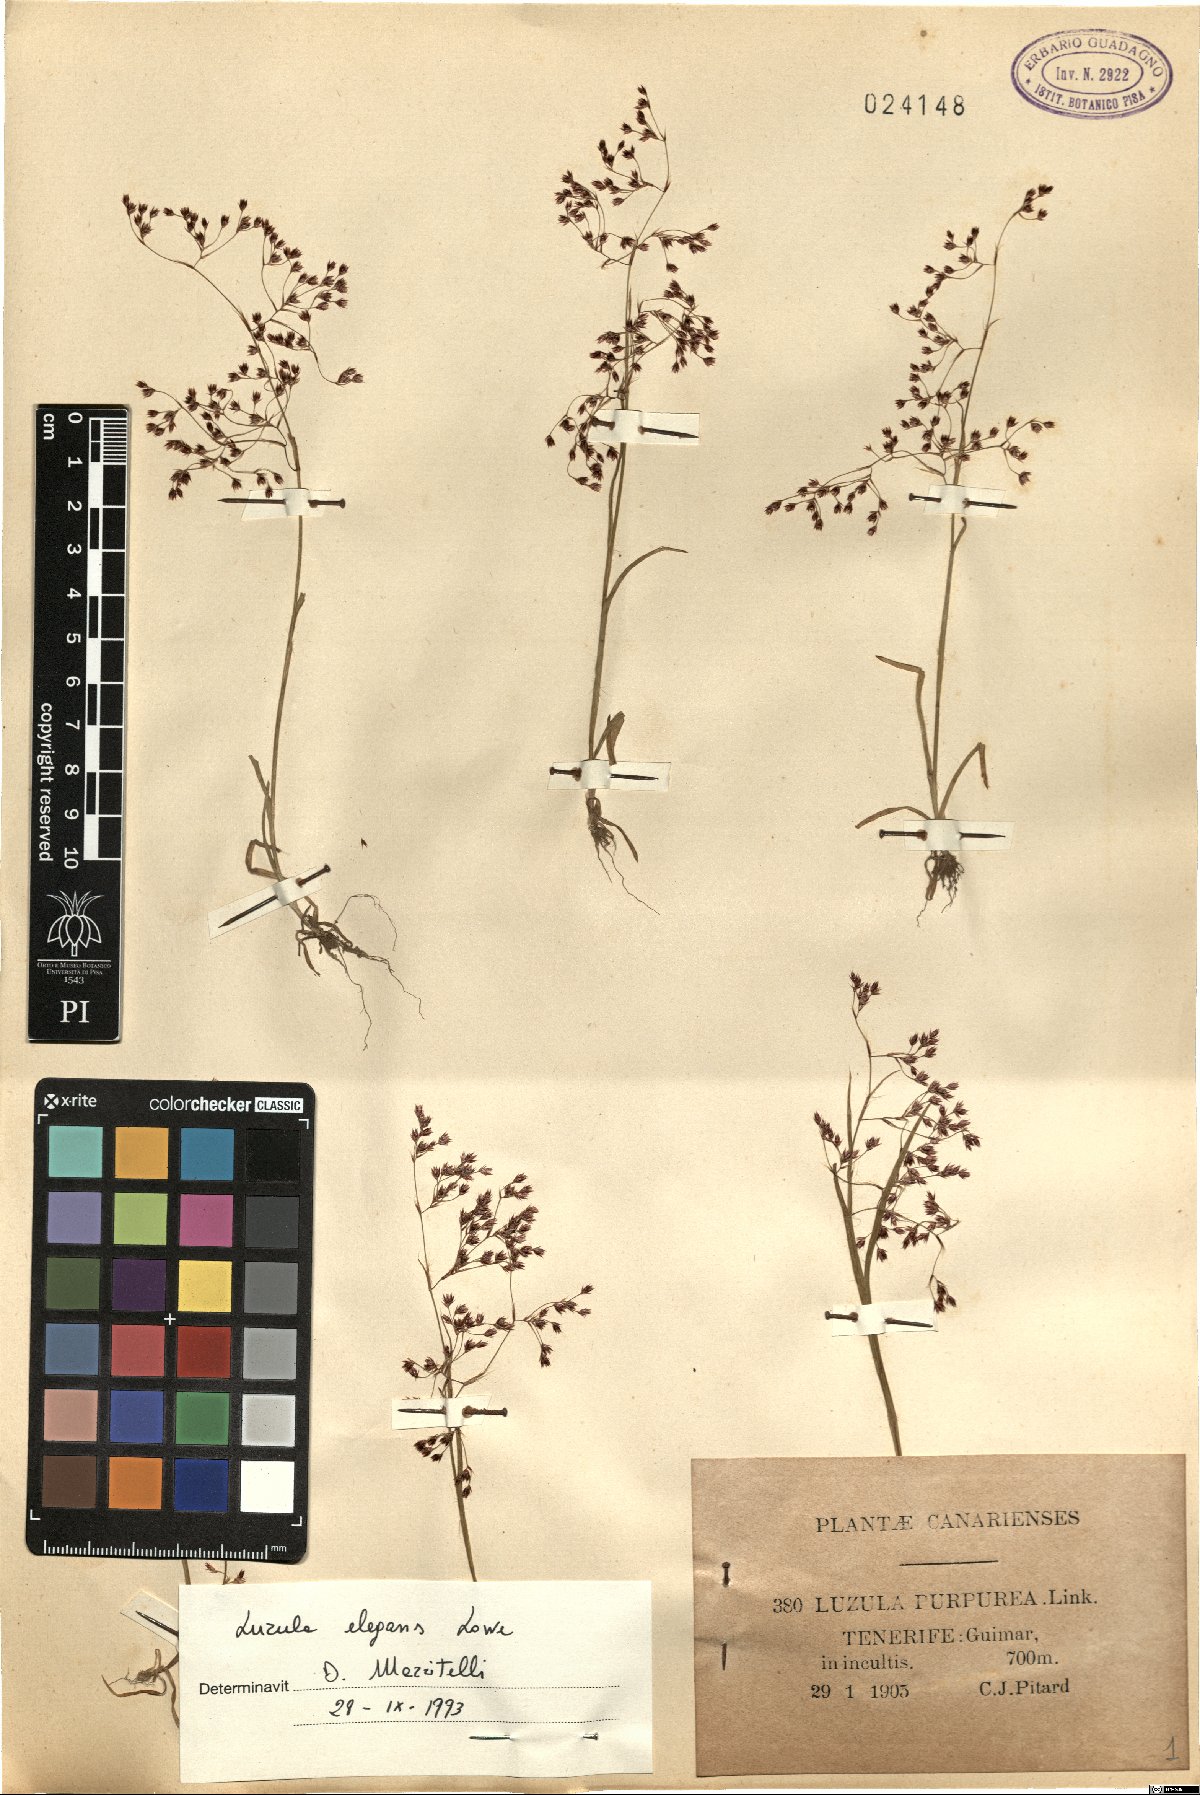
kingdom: Plantae
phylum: Tracheophyta
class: Liliopsida
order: Poales
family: Juncaceae
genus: Luzula
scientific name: Luzula elegans
